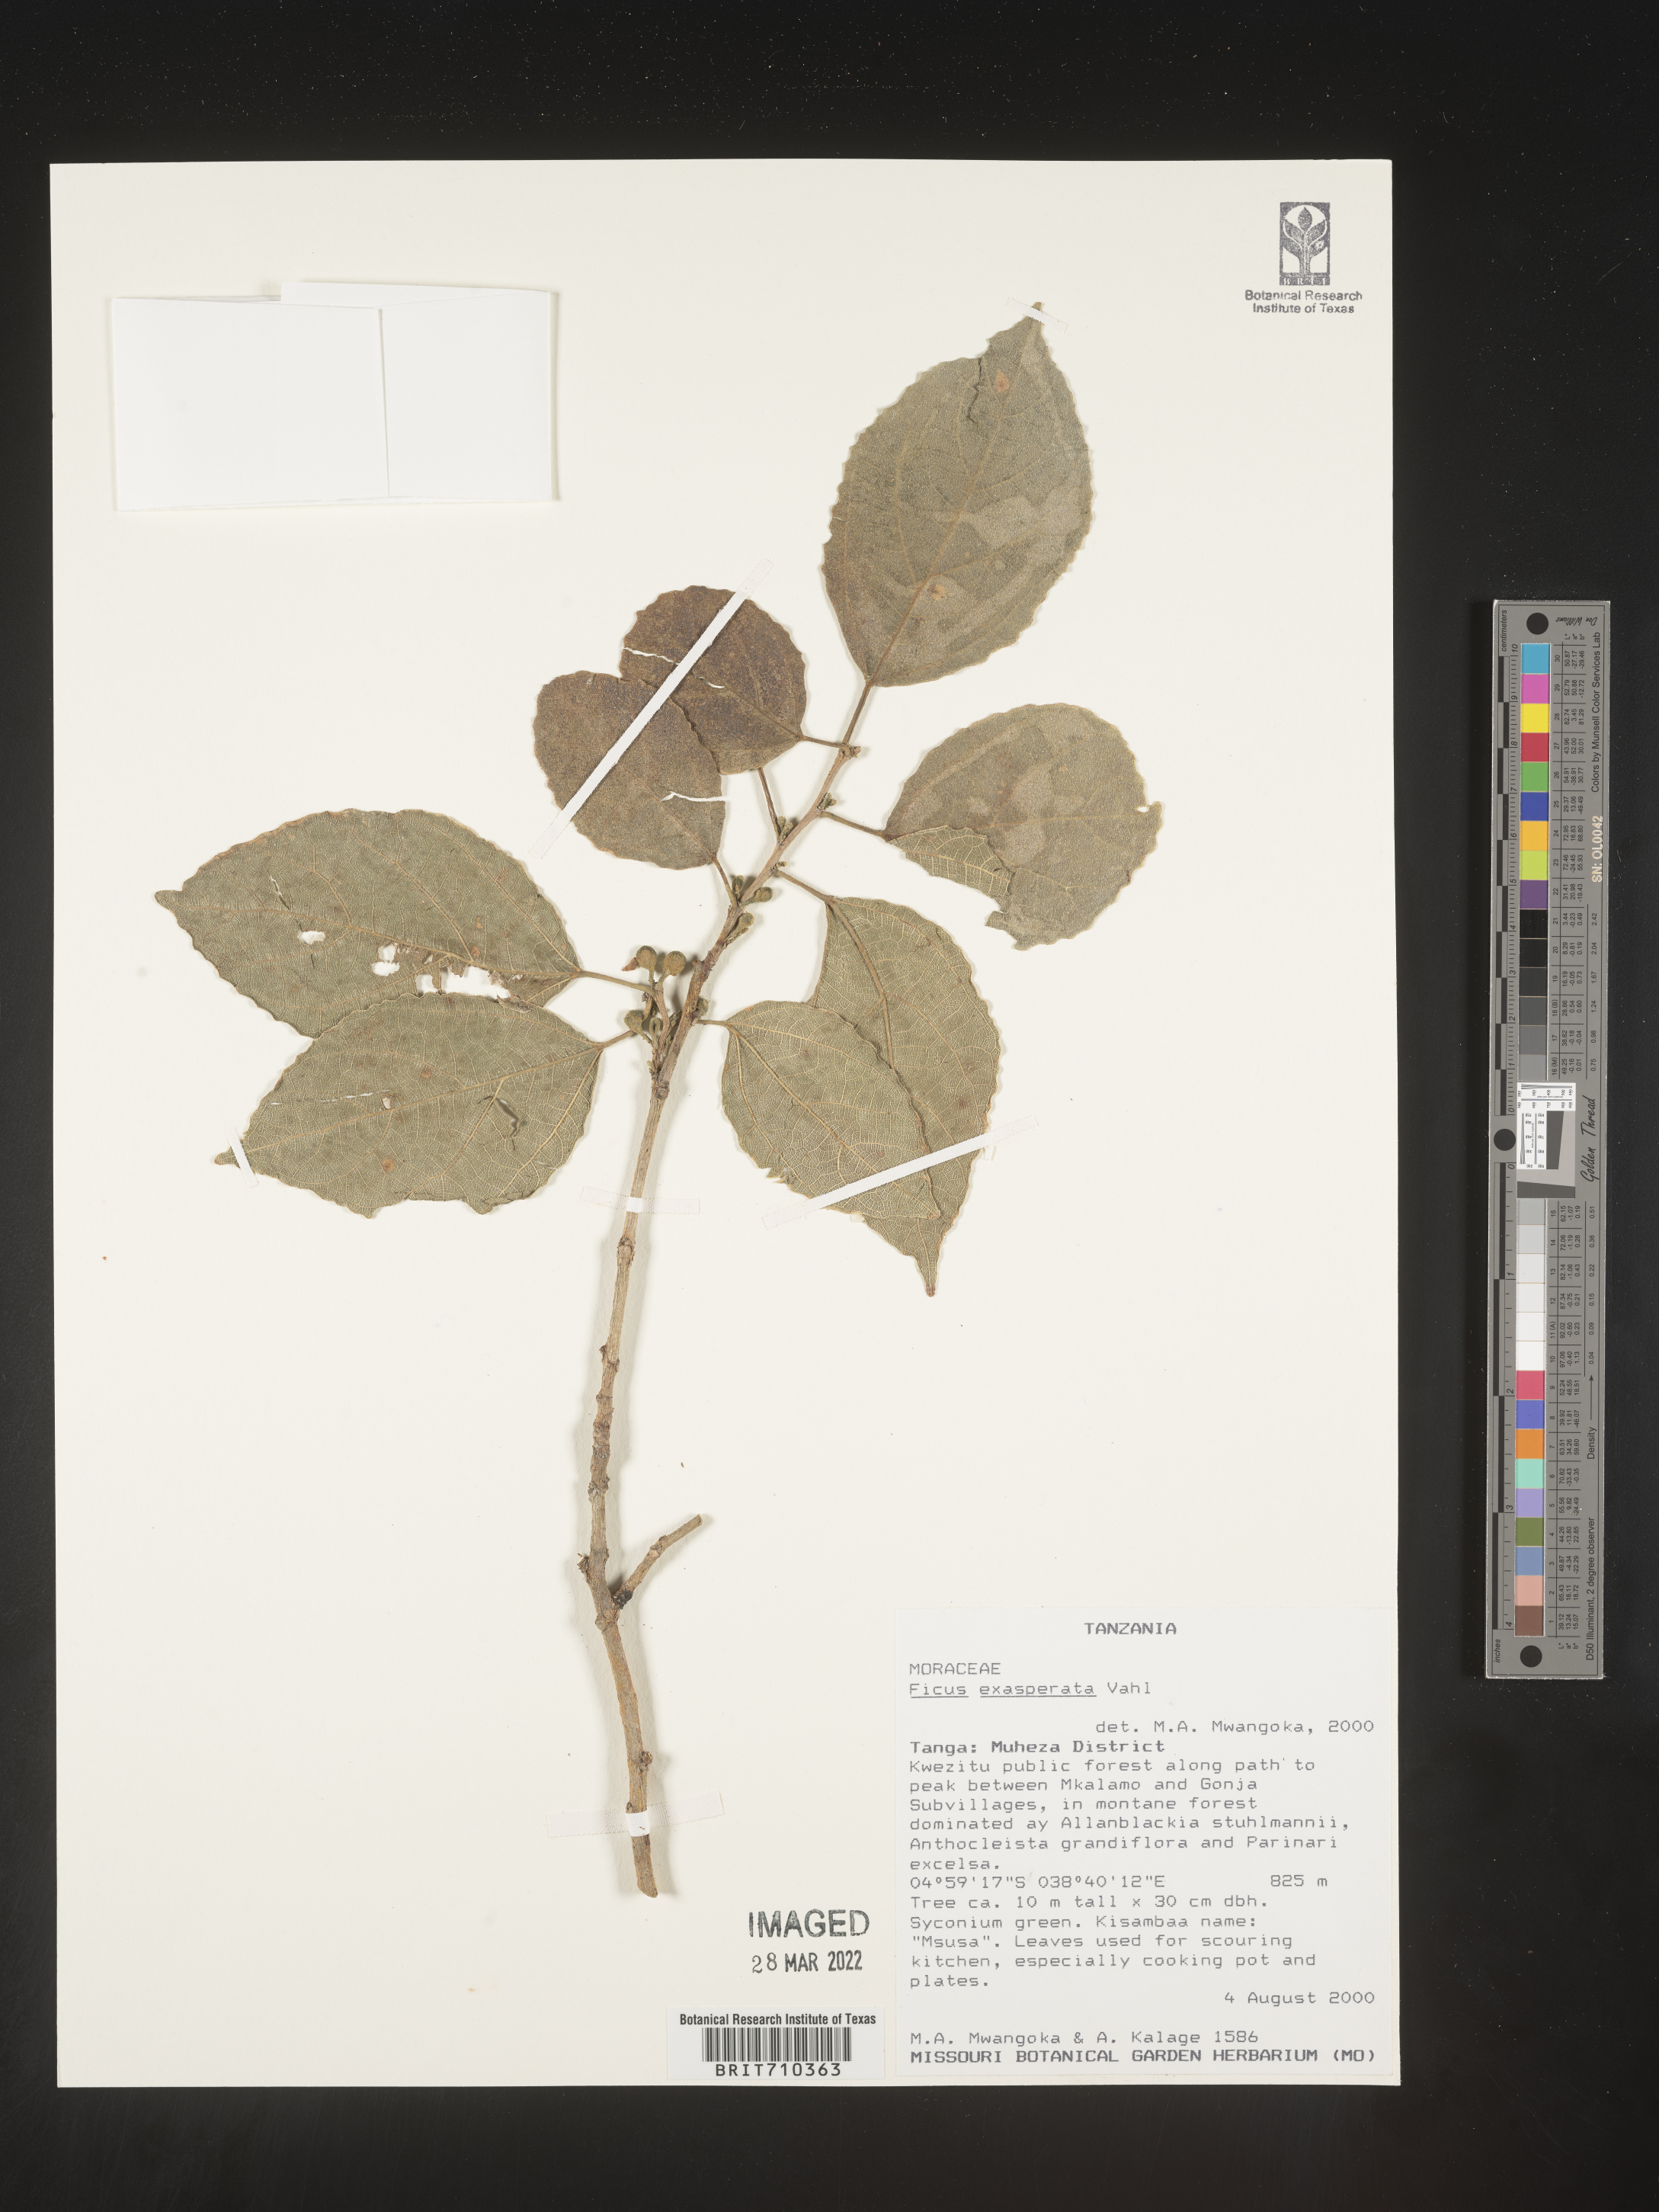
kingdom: Plantae
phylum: Tracheophyta
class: Magnoliopsida
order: Rosales
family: Moraceae
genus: Ficus
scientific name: Ficus
